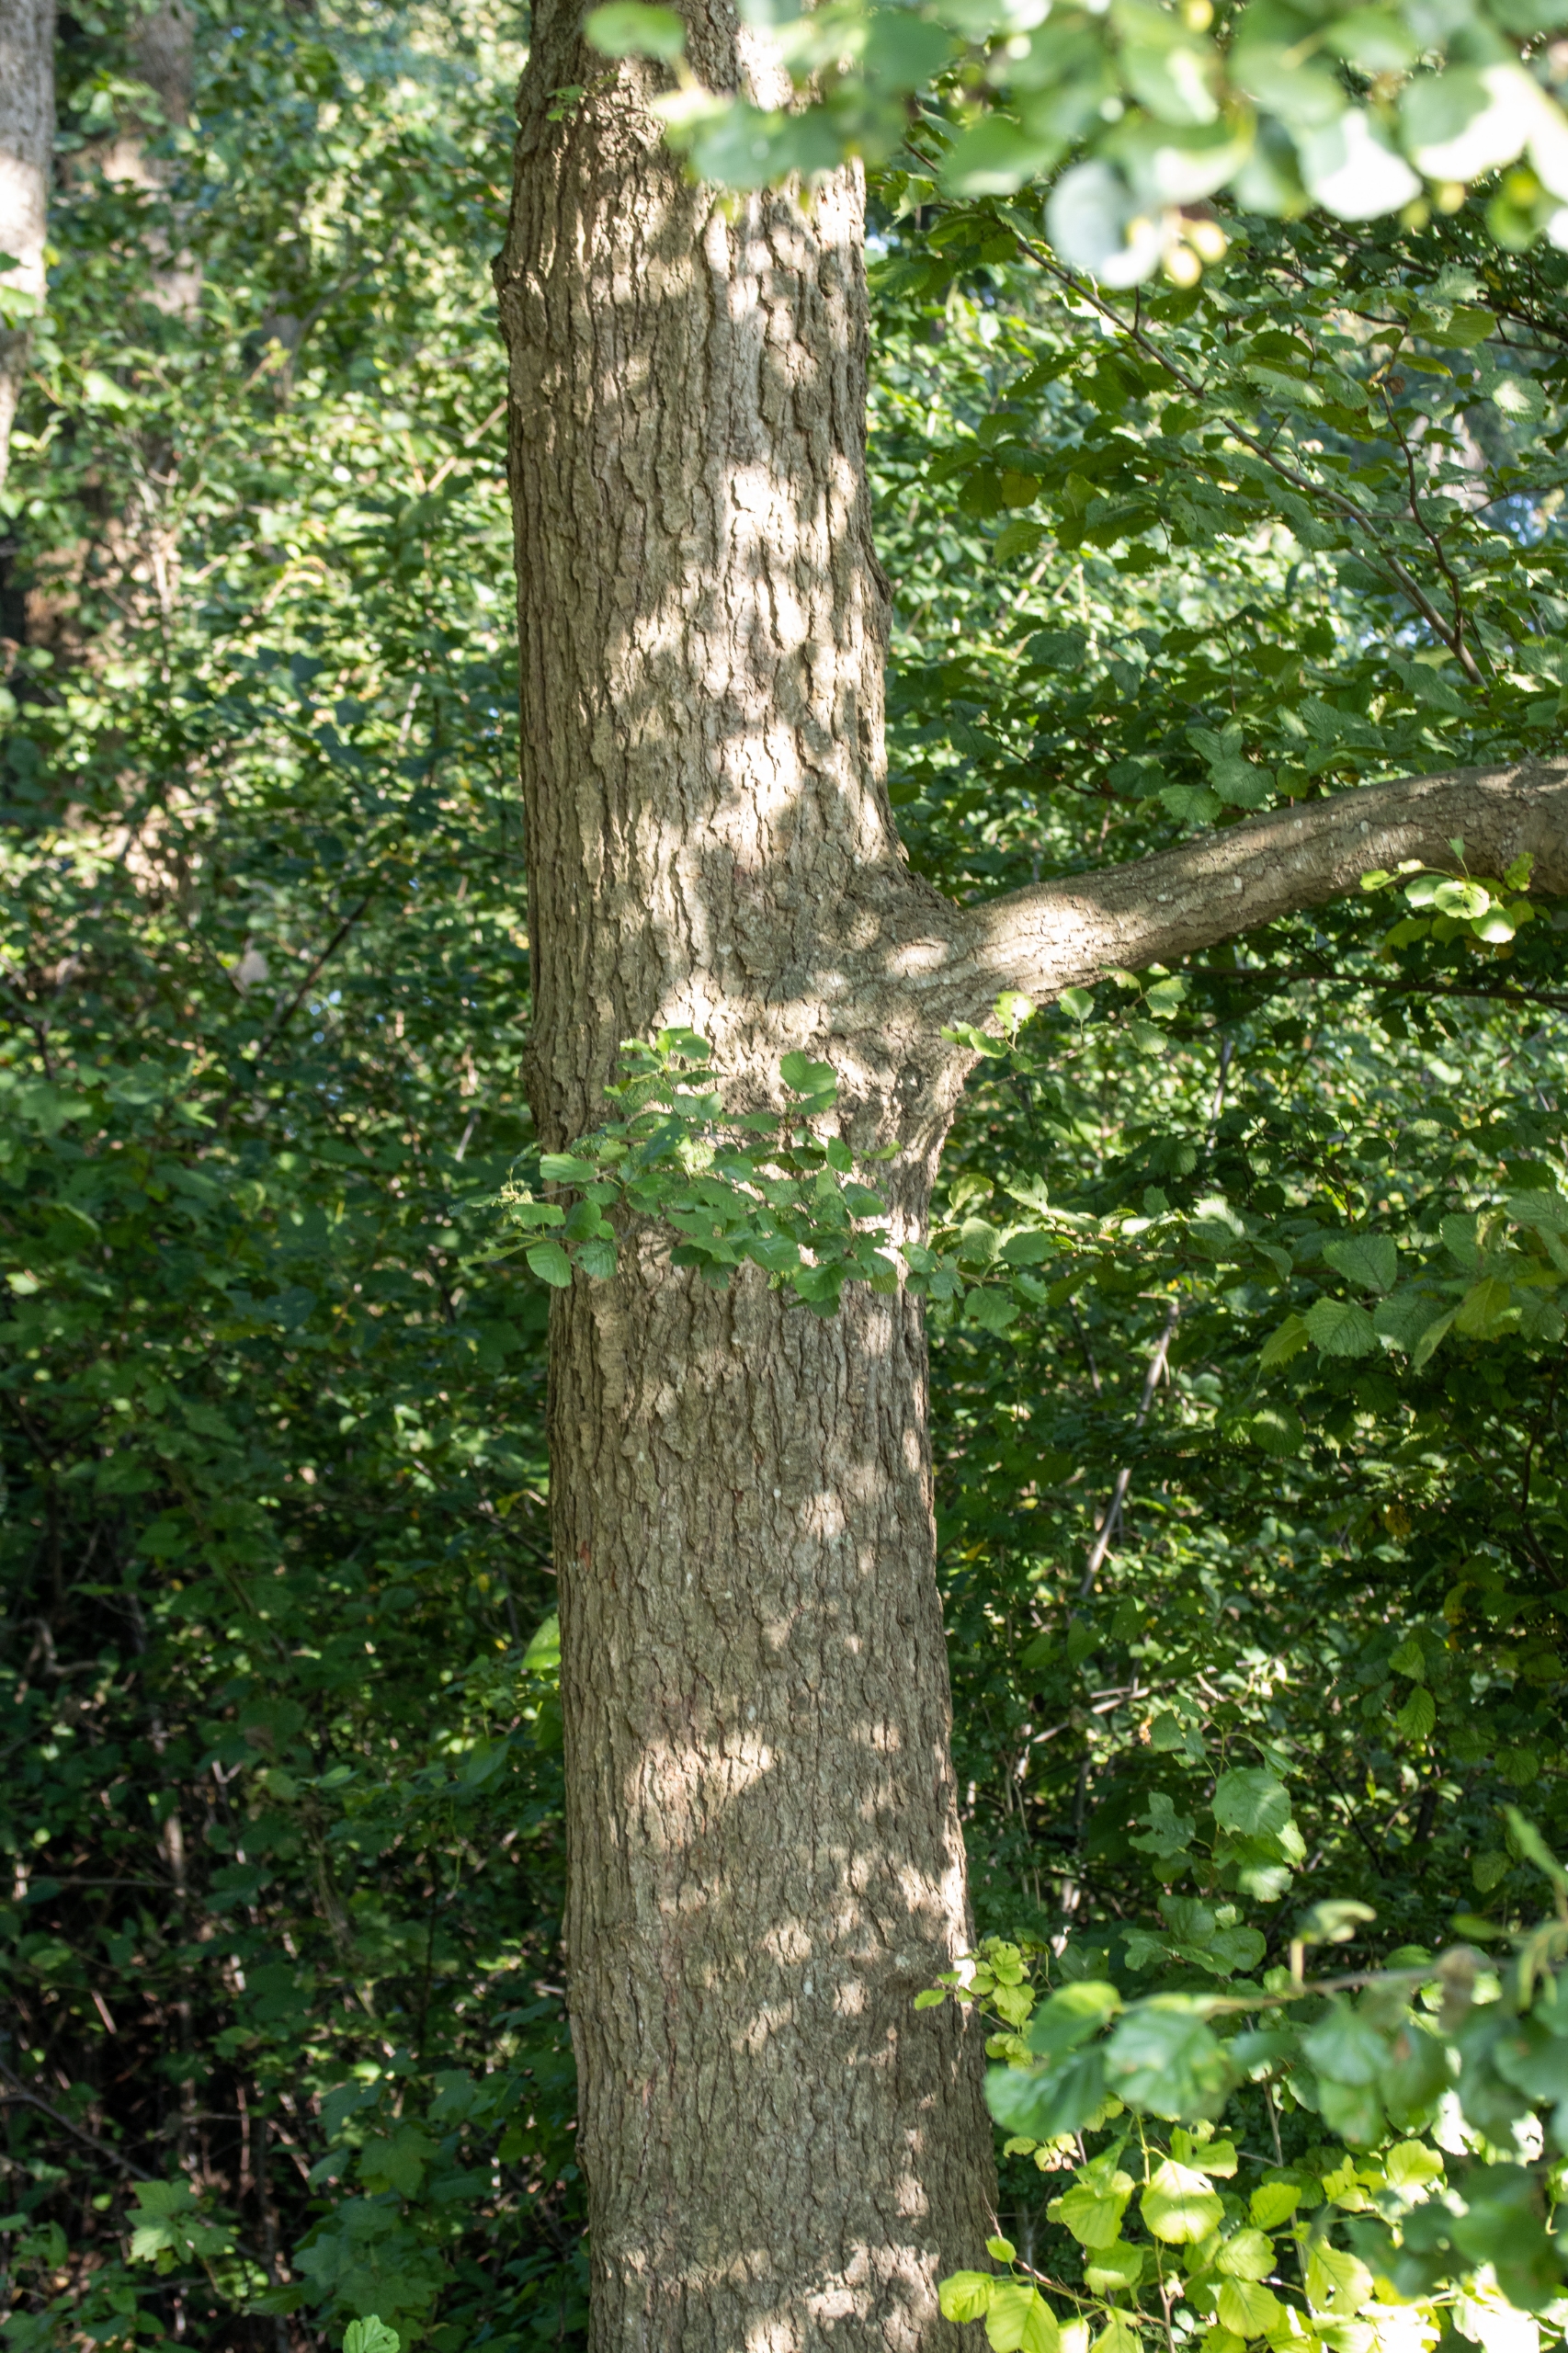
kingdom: Plantae
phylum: Tracheophyta
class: Magnoliopsida
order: Fagales
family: Betulaceae
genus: Alnus
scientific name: Alnus glutinosa
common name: Rød-el
